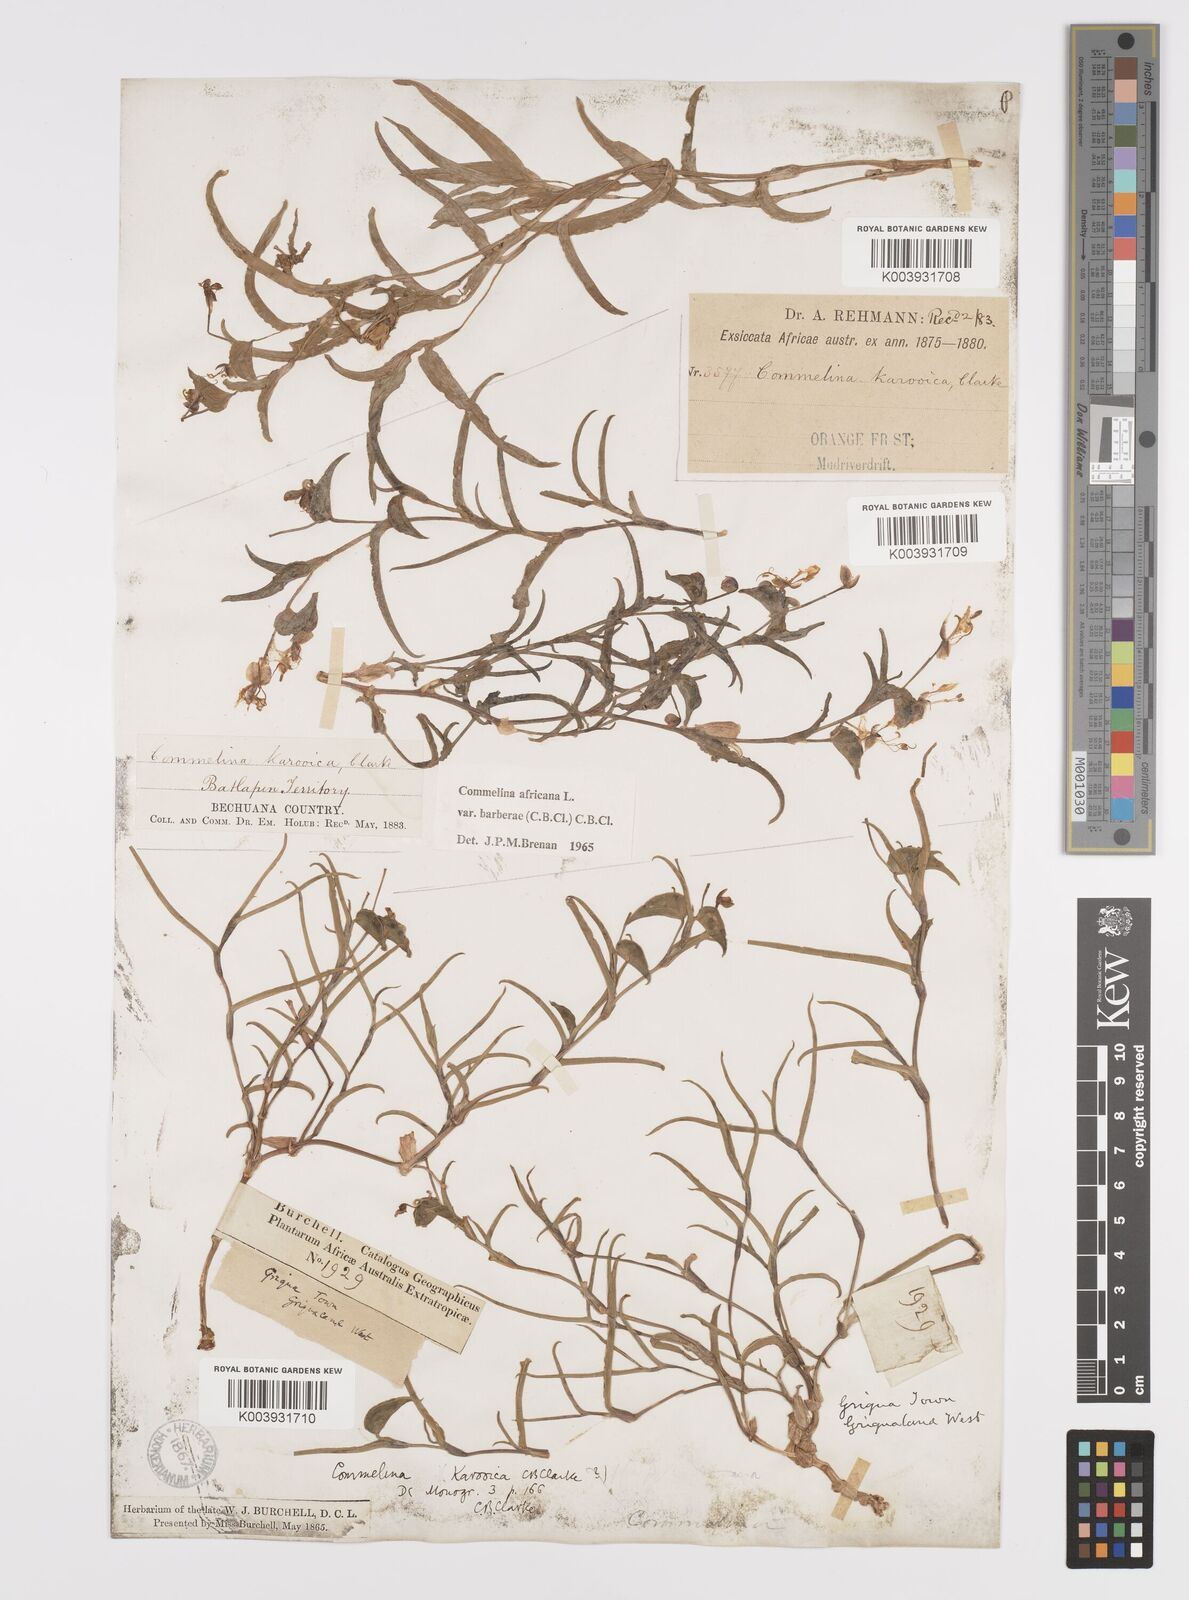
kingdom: Plantae
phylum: Tracheophyta
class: Liliopsida
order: Commelinales
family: Commelinaceae
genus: Commelina
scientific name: Commelina africana
